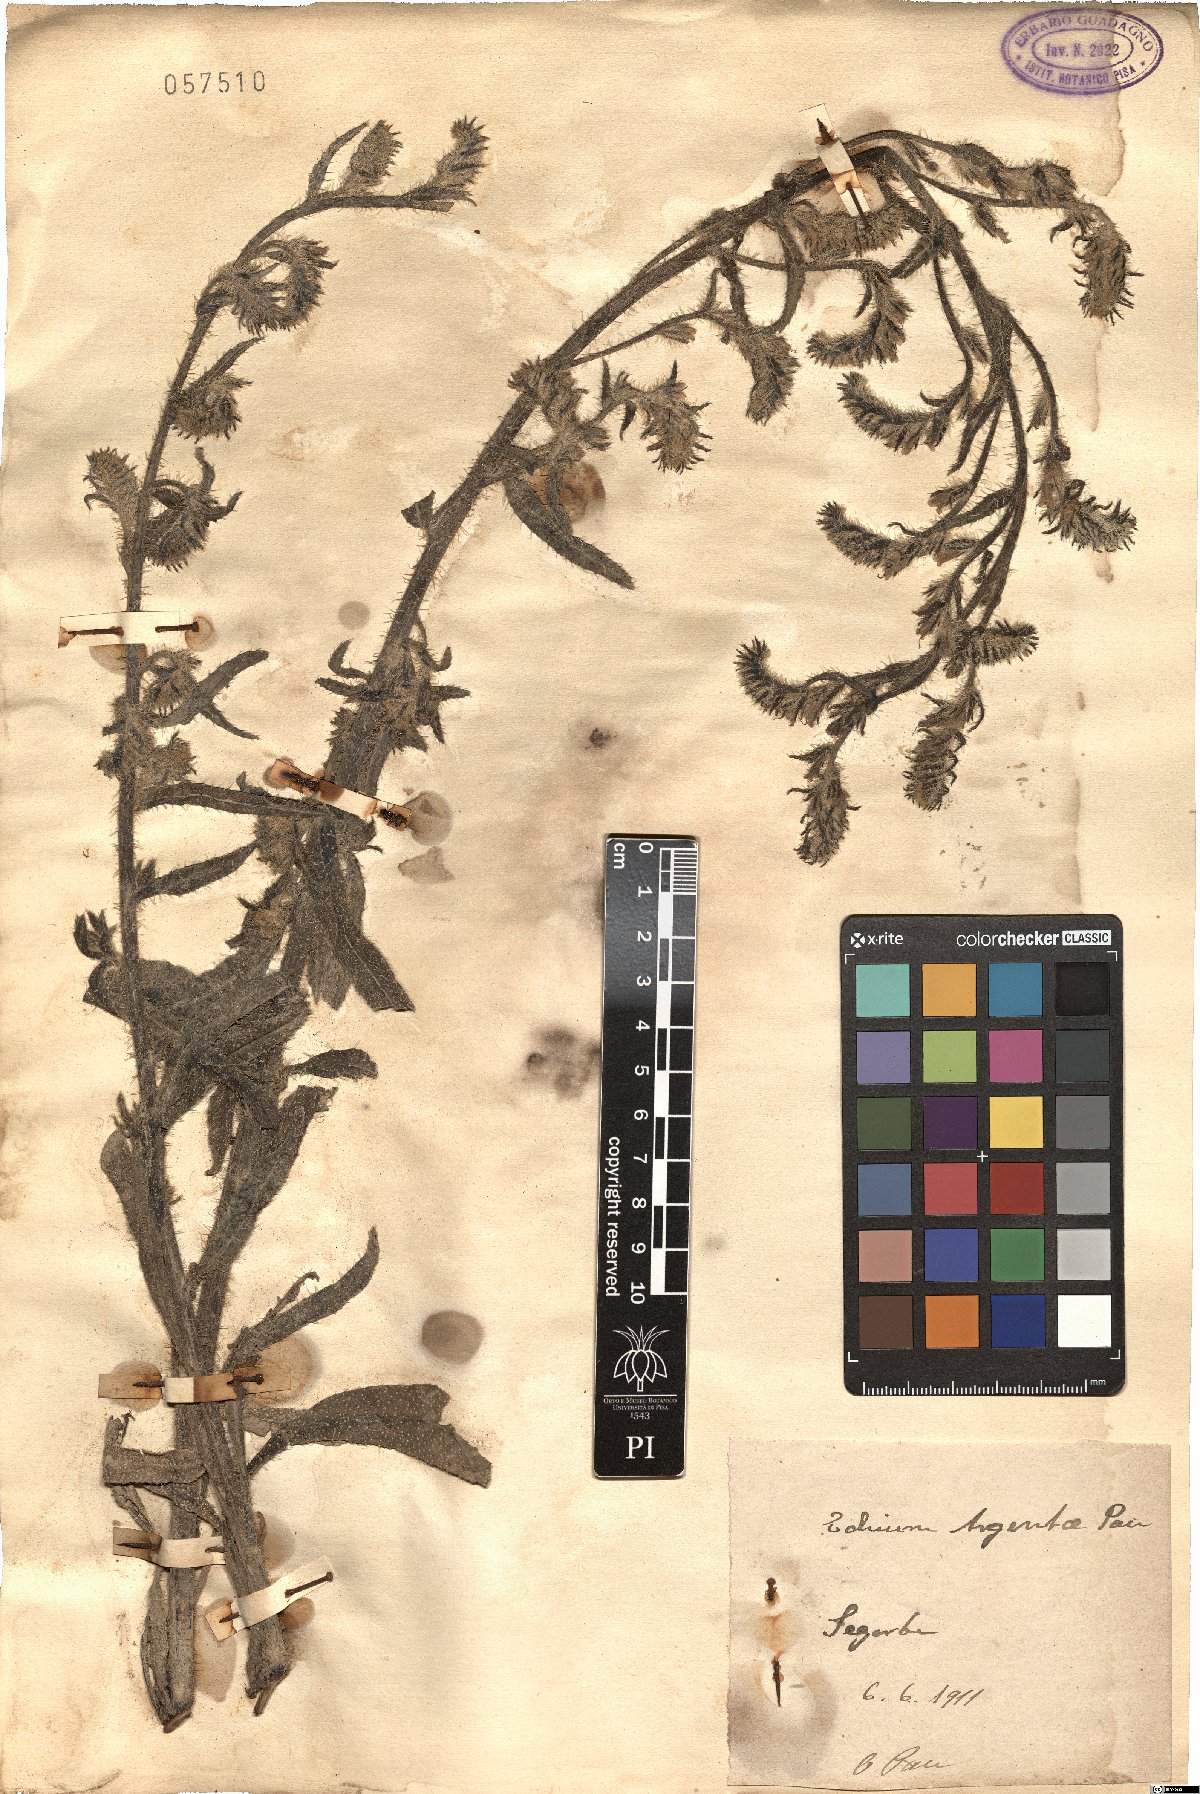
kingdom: Plantae
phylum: Tracheophyta
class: Magnoliopsida
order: Boraginales
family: Boraginaceae
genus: Lobostemon
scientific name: Lobostemon argenteus
